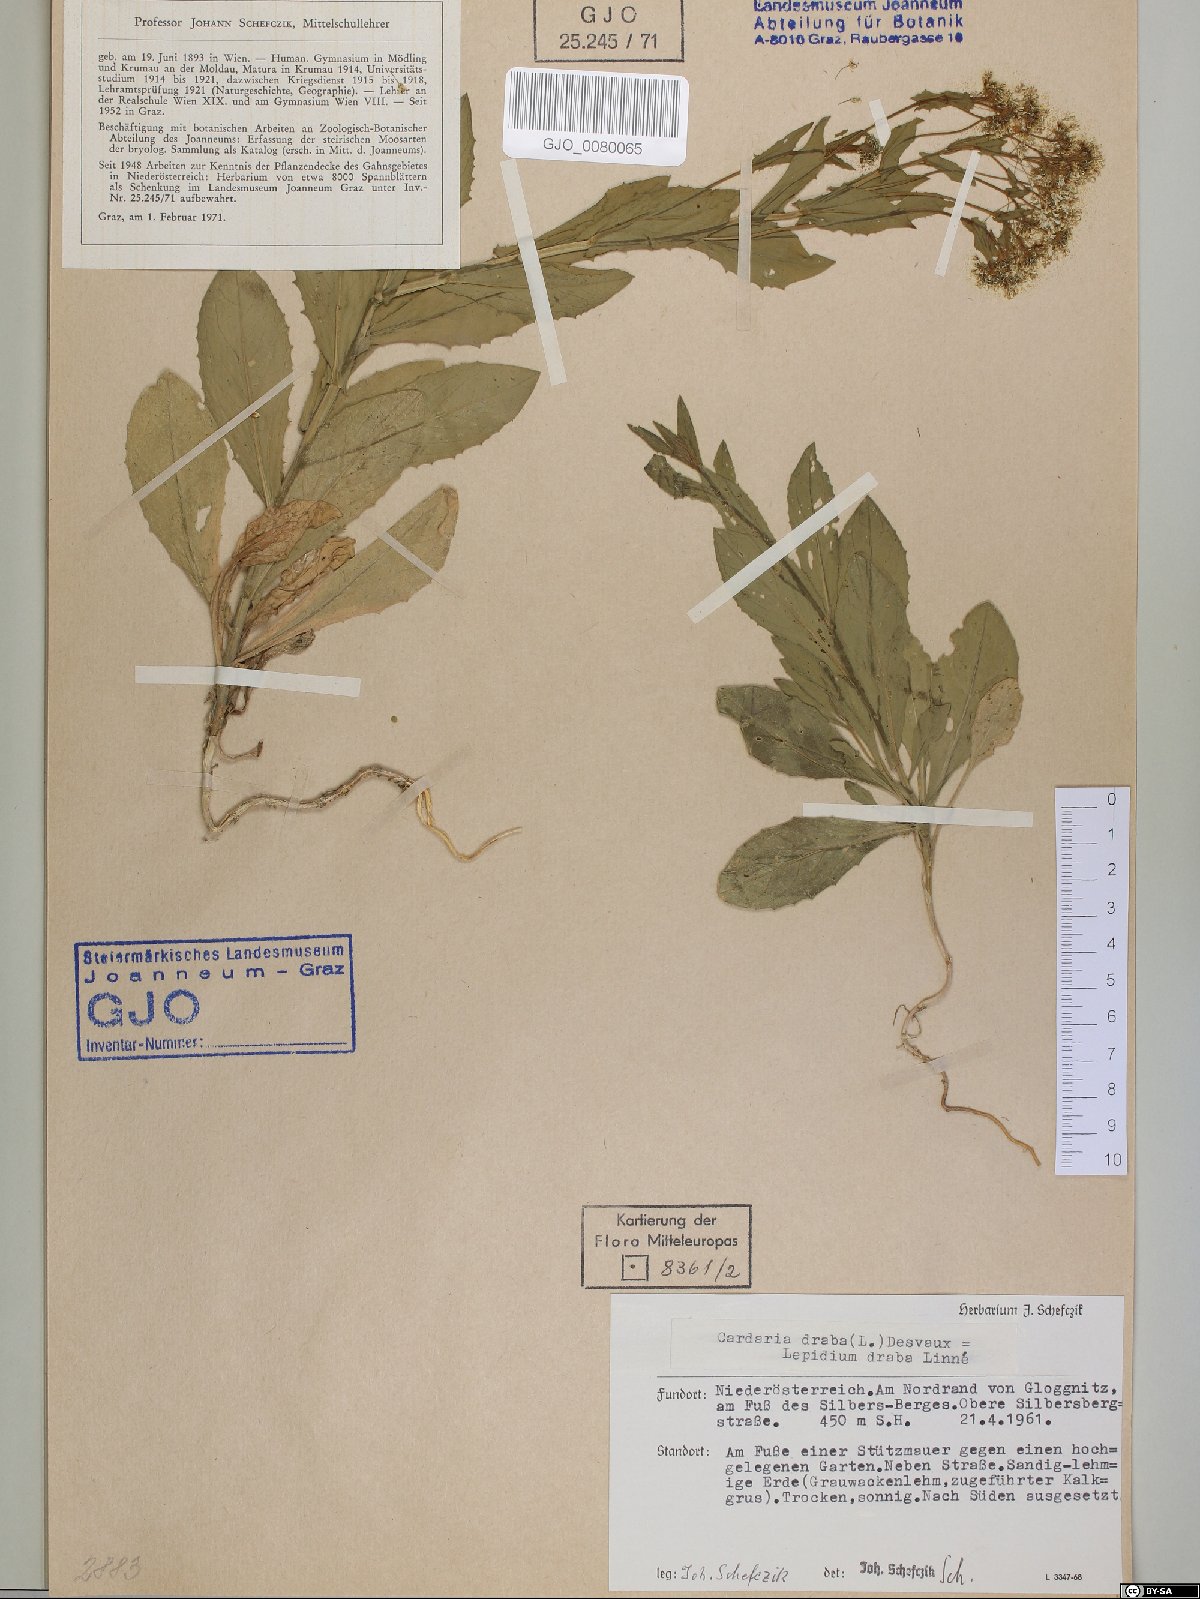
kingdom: Plantae
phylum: Tracheophyta
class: Magnoliopsida
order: Brassicales
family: Brassicaceae
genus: Lepidium
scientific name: Lepidium draba
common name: Hoary cress
